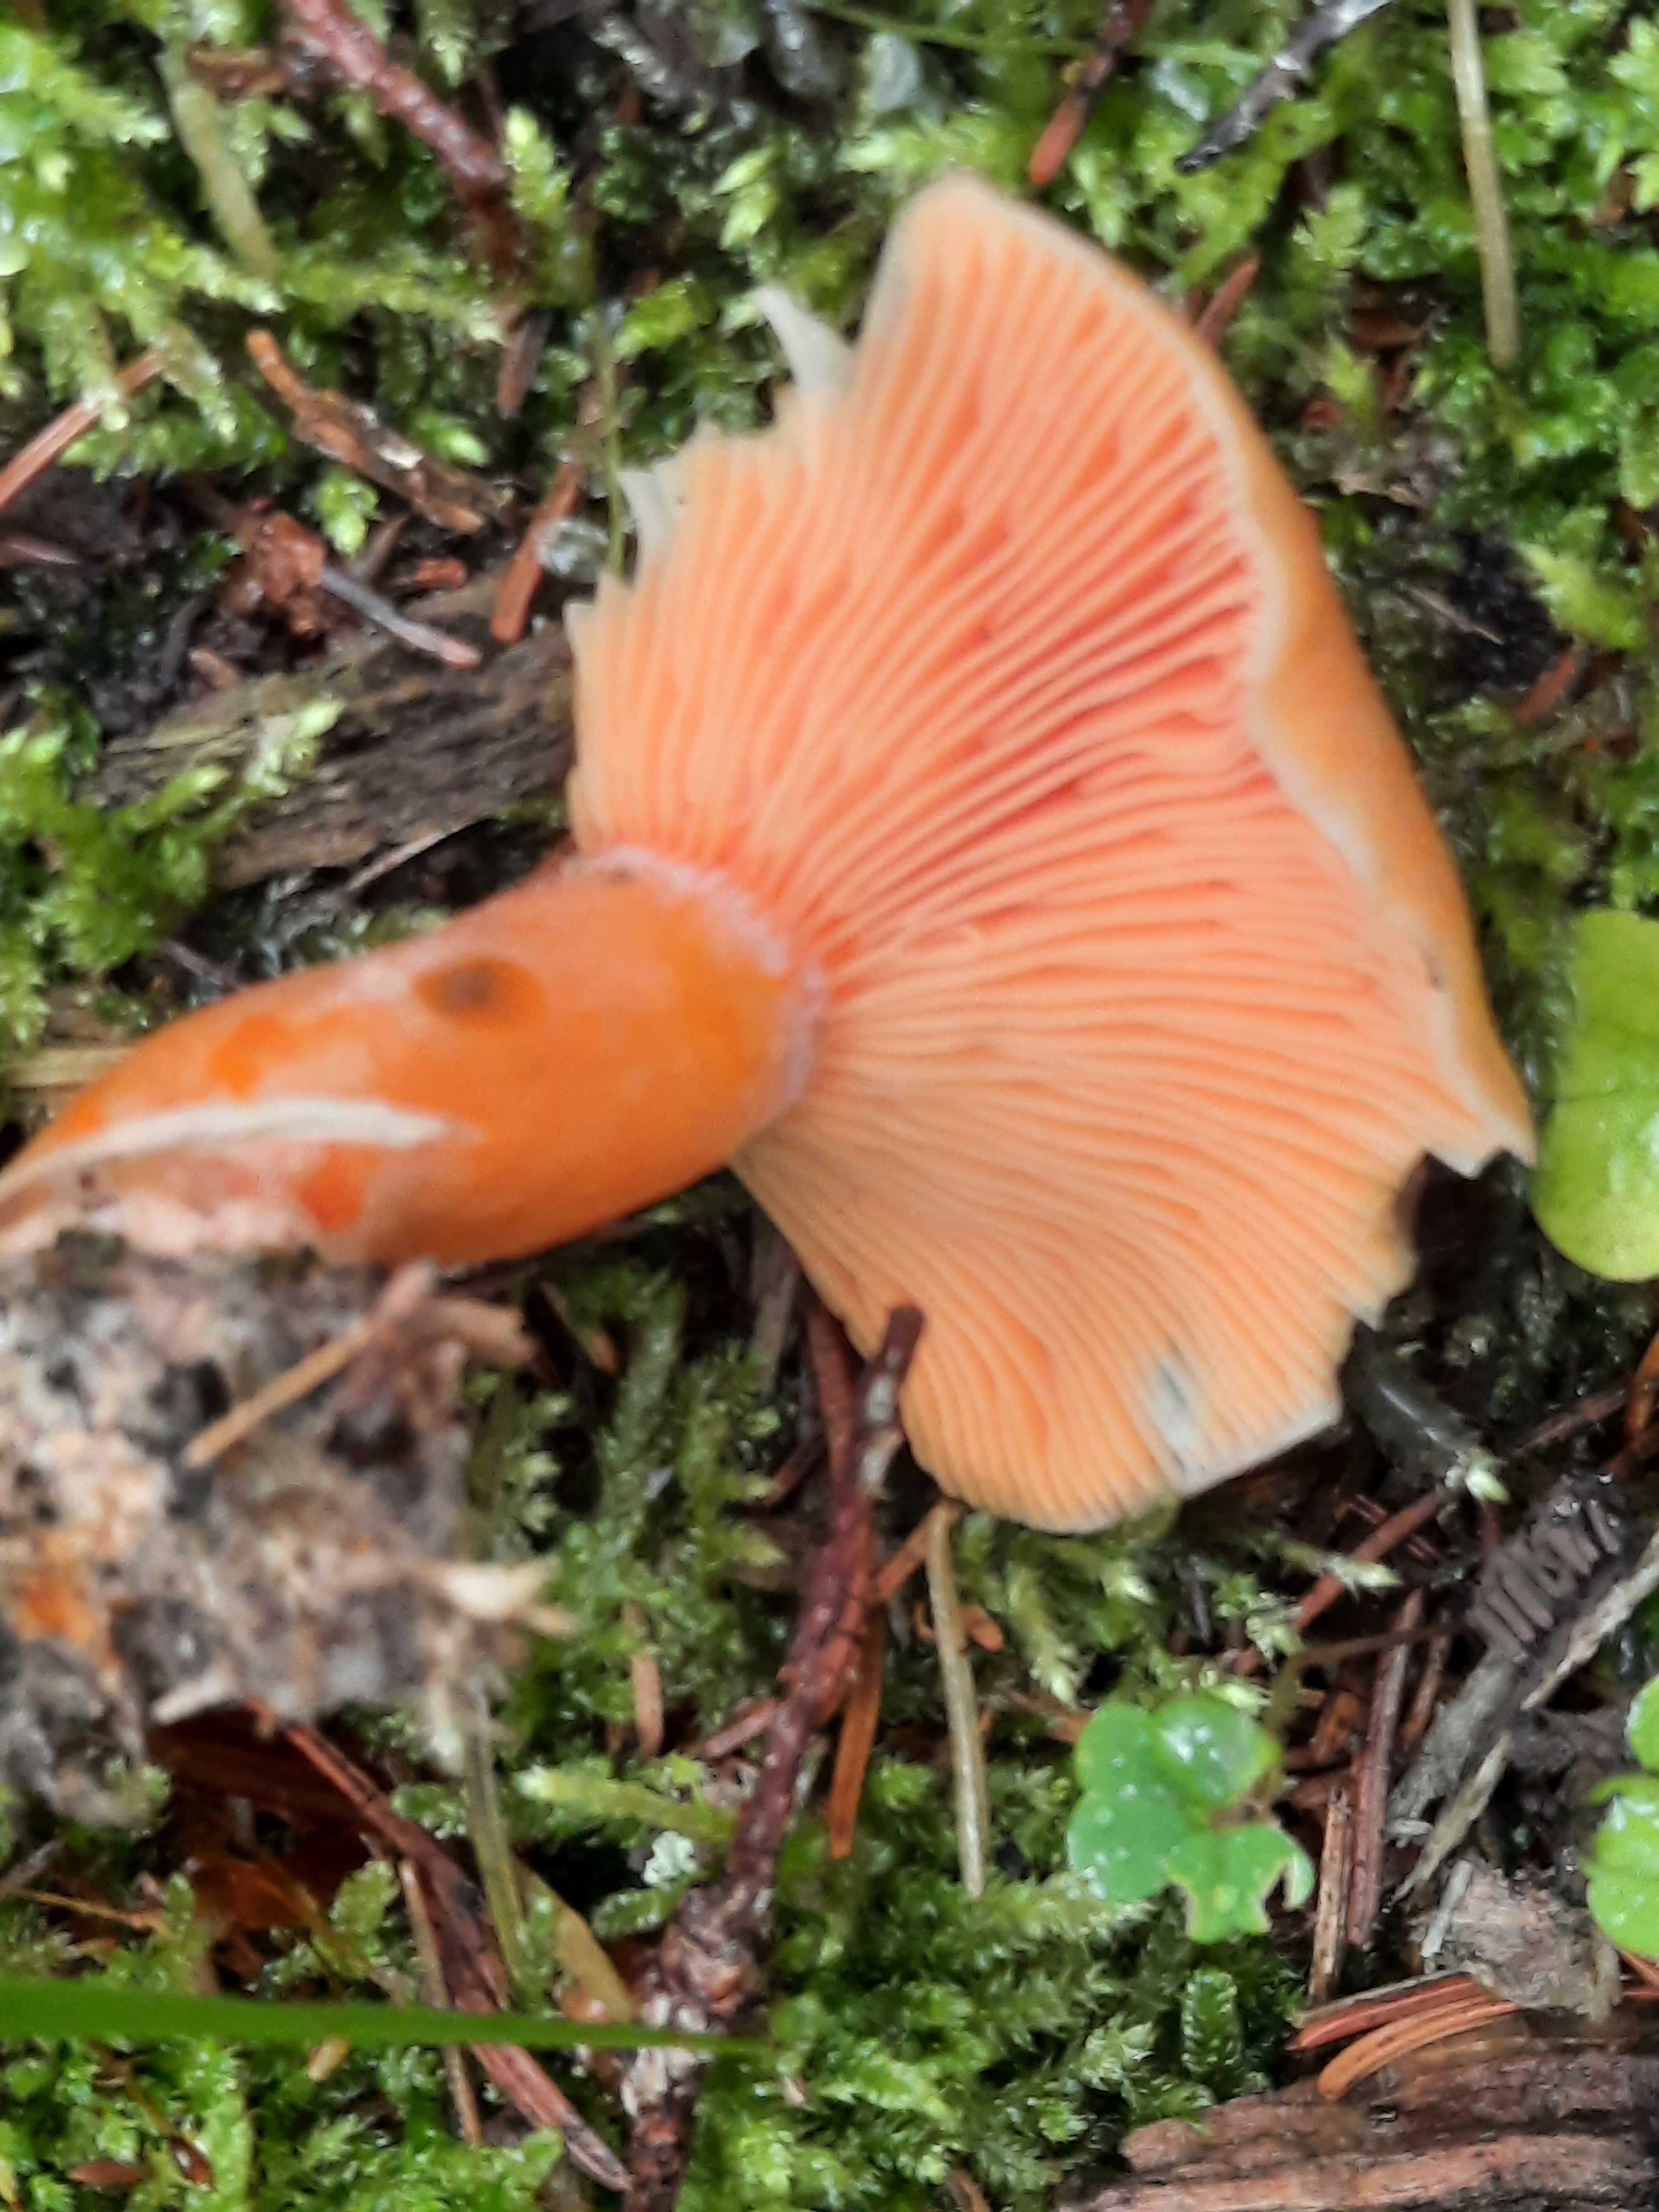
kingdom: Fungi
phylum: Basidiomycota
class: Agaricomycetes
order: Russulales
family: Russulaceae
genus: Lactarius
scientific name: Lactarius deterrimus
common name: gran-mælkehat
